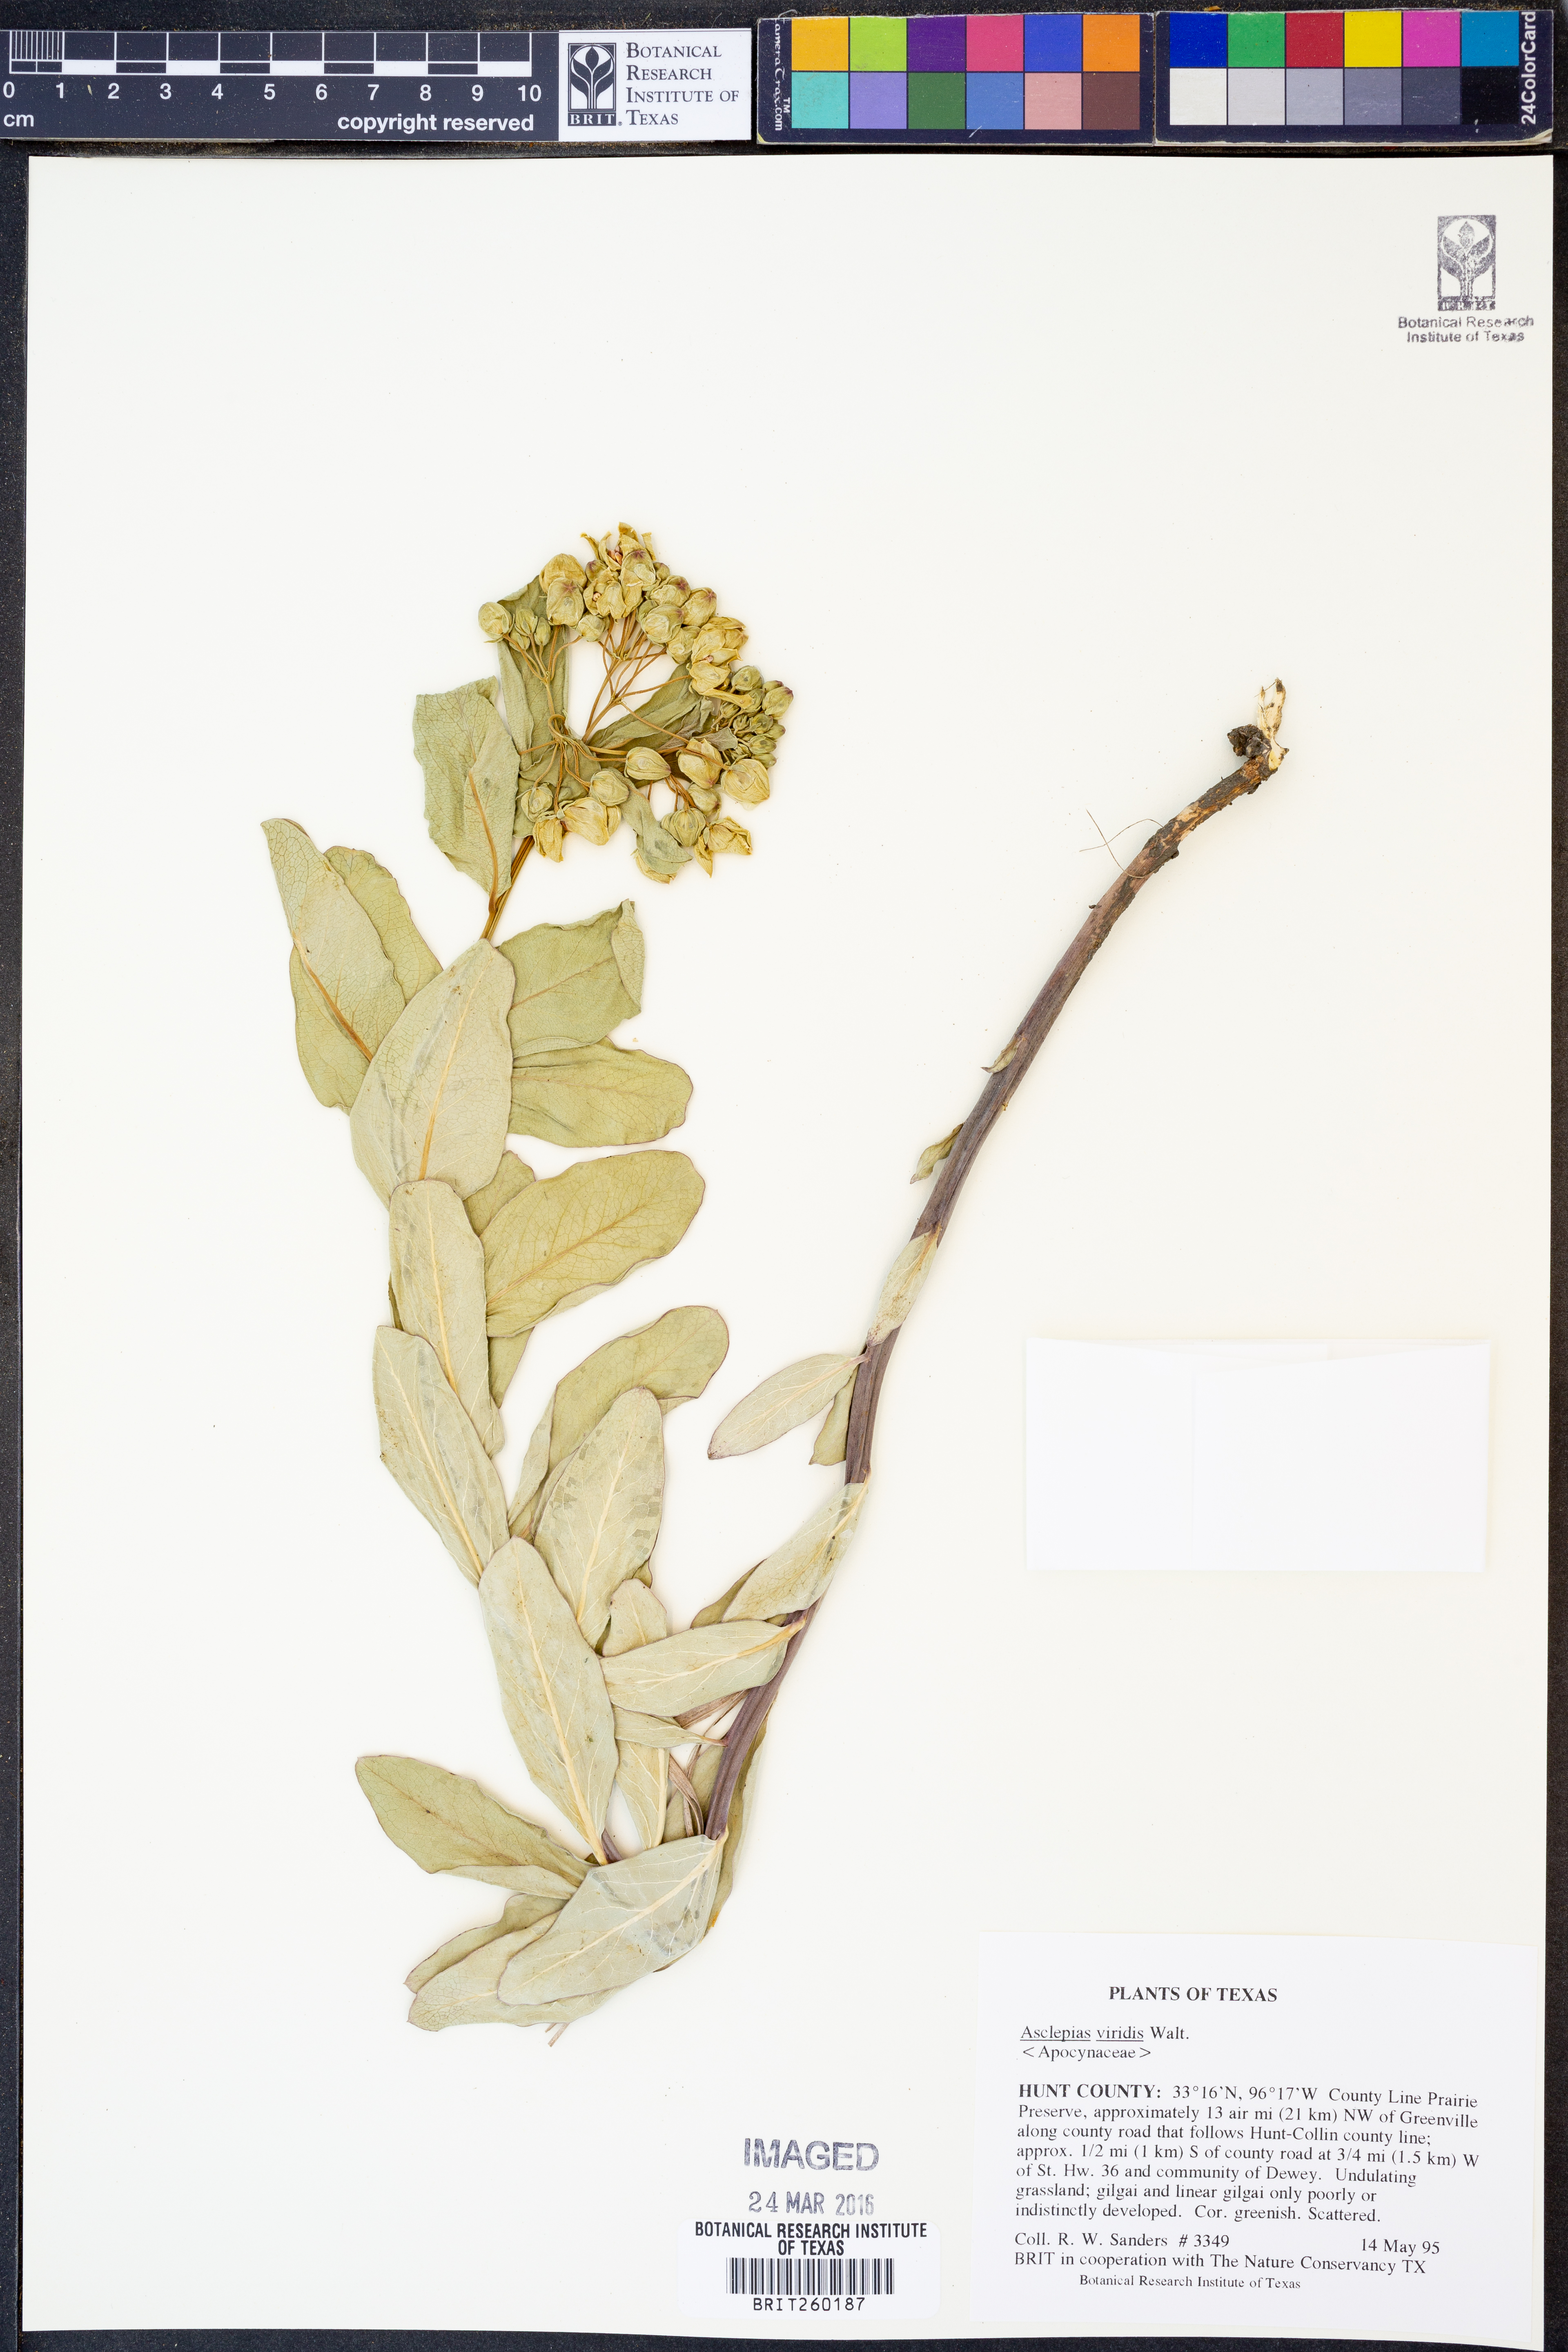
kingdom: Plantae
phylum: Tracheophyta
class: Magnoliopsida
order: Gentianales
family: Apocynaceae
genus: Asclepias
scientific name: Asclepias viridis
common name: Antelope-horns
